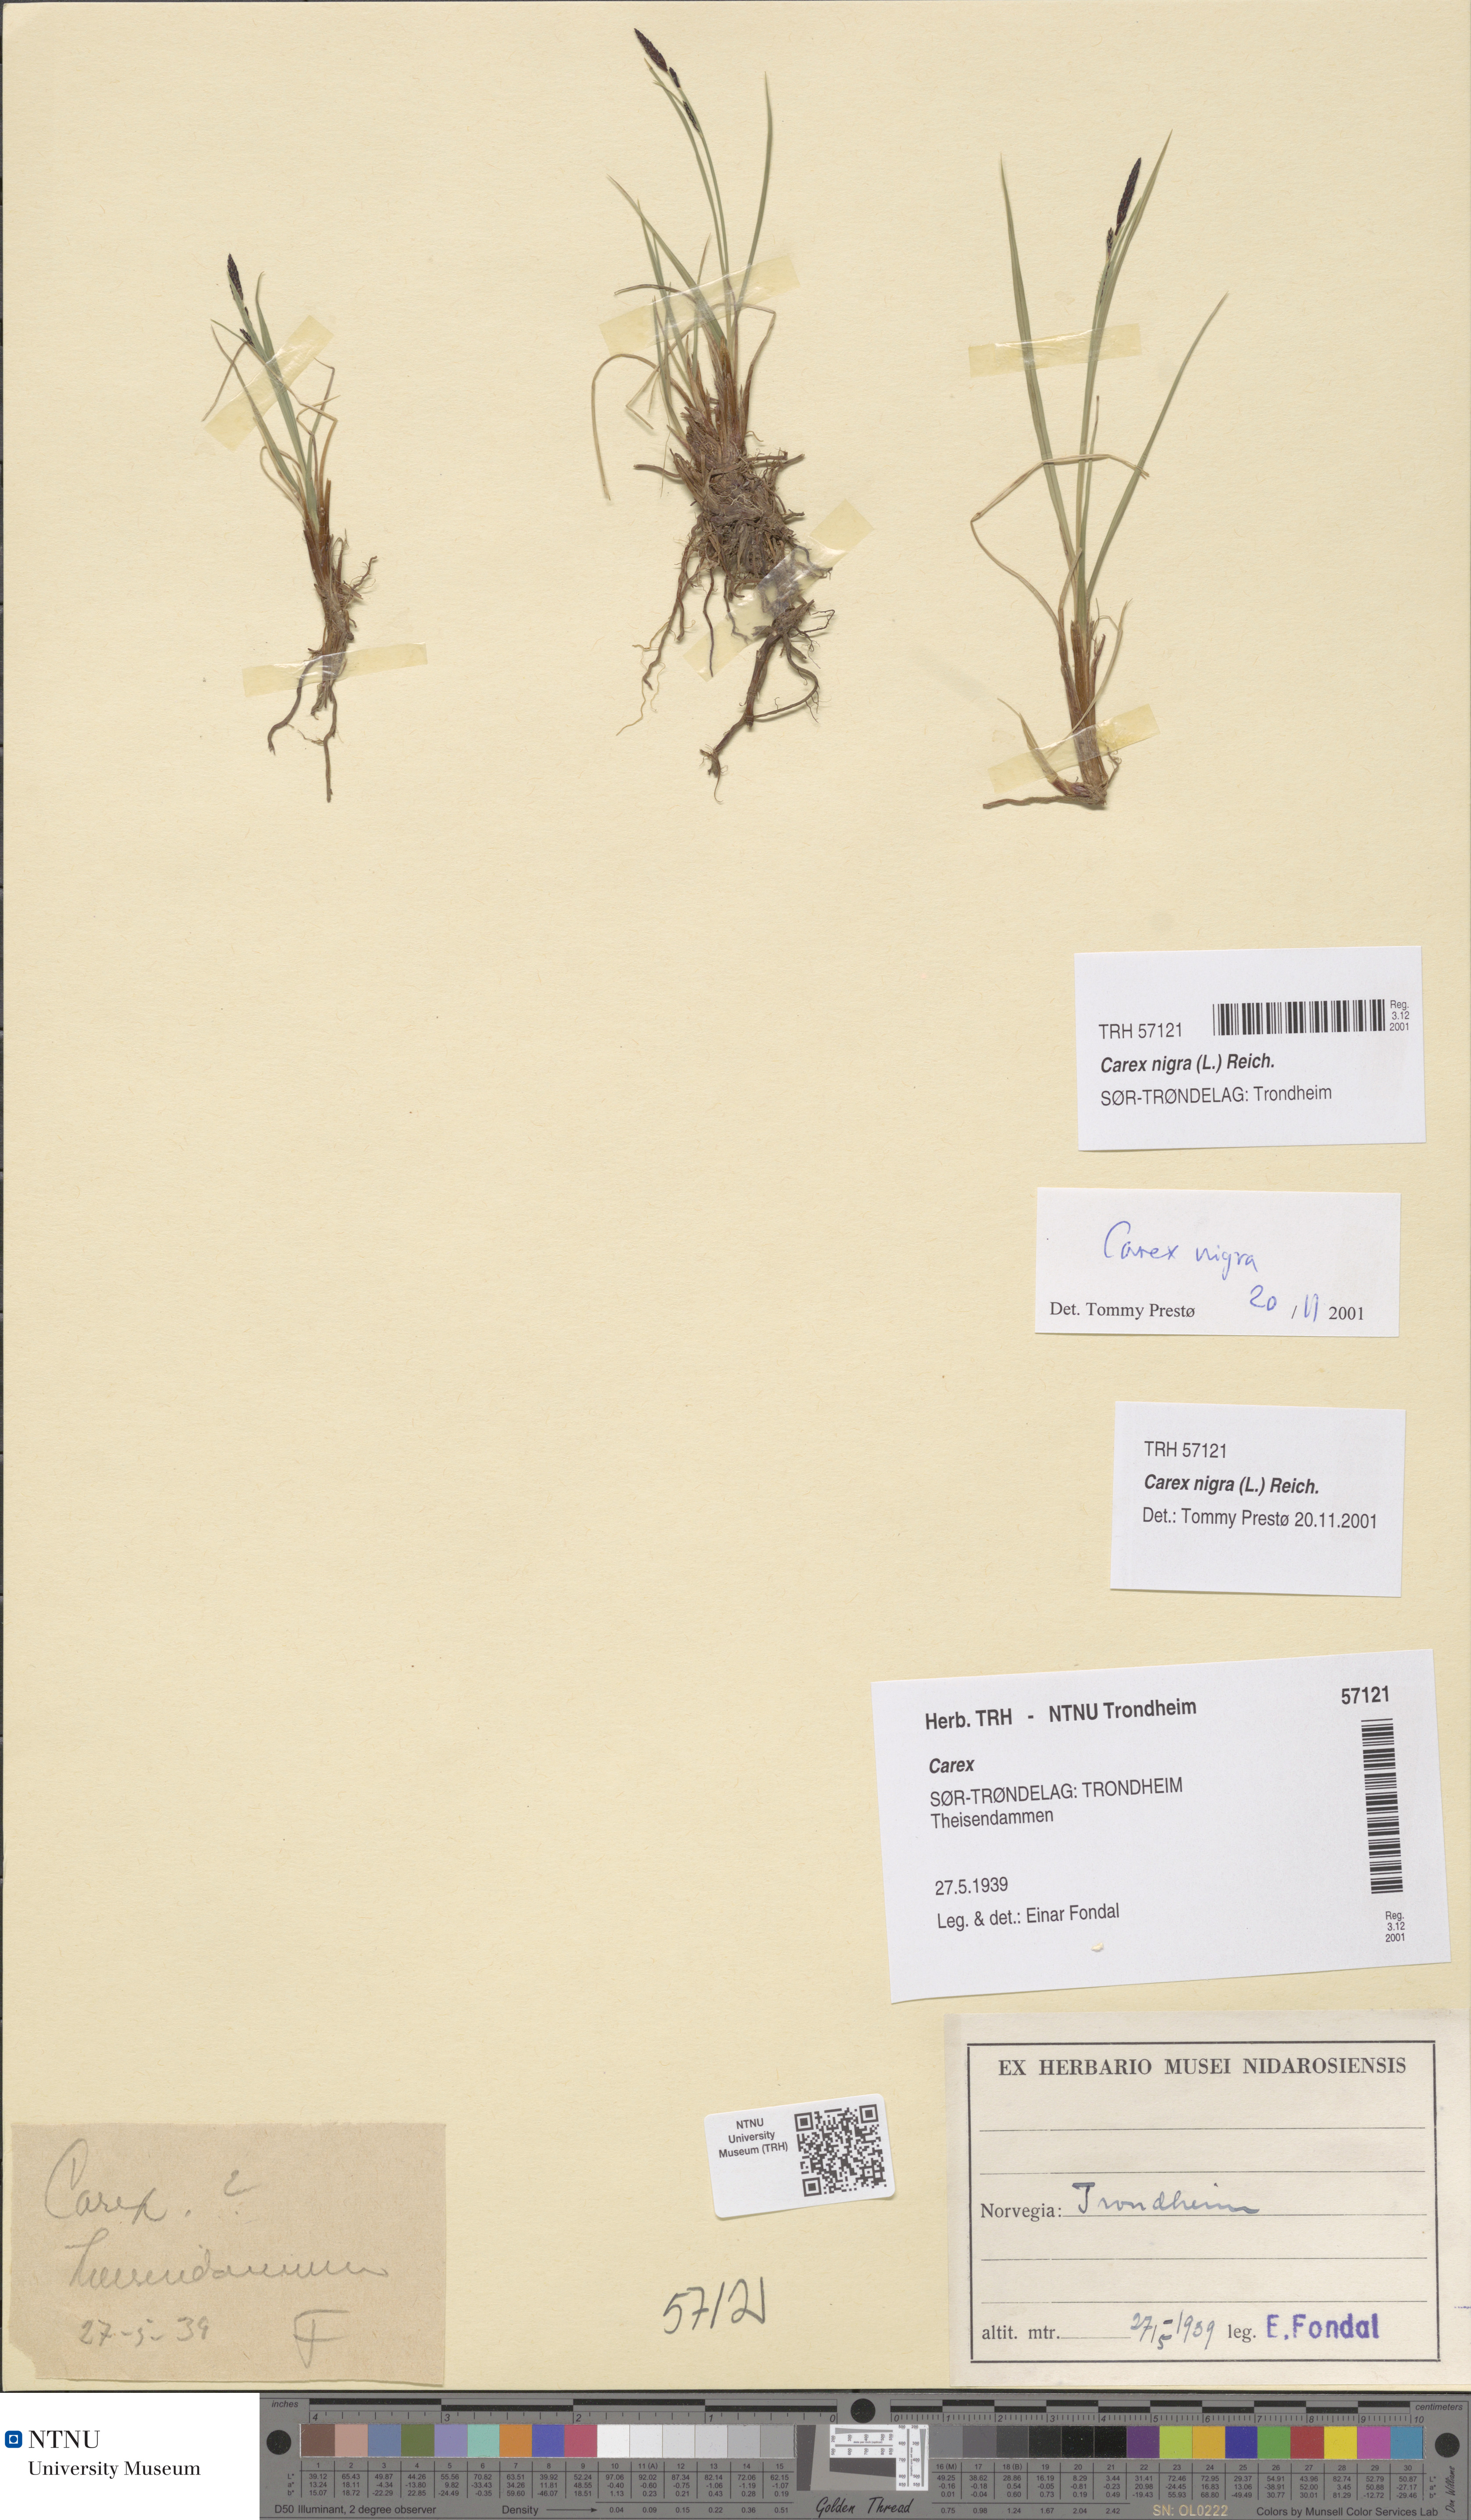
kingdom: Plantae
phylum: Tracheophyta
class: Liliopsida
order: Poales
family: Cyperaceae
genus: Carex
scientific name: Carex nigra
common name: Common sedge
